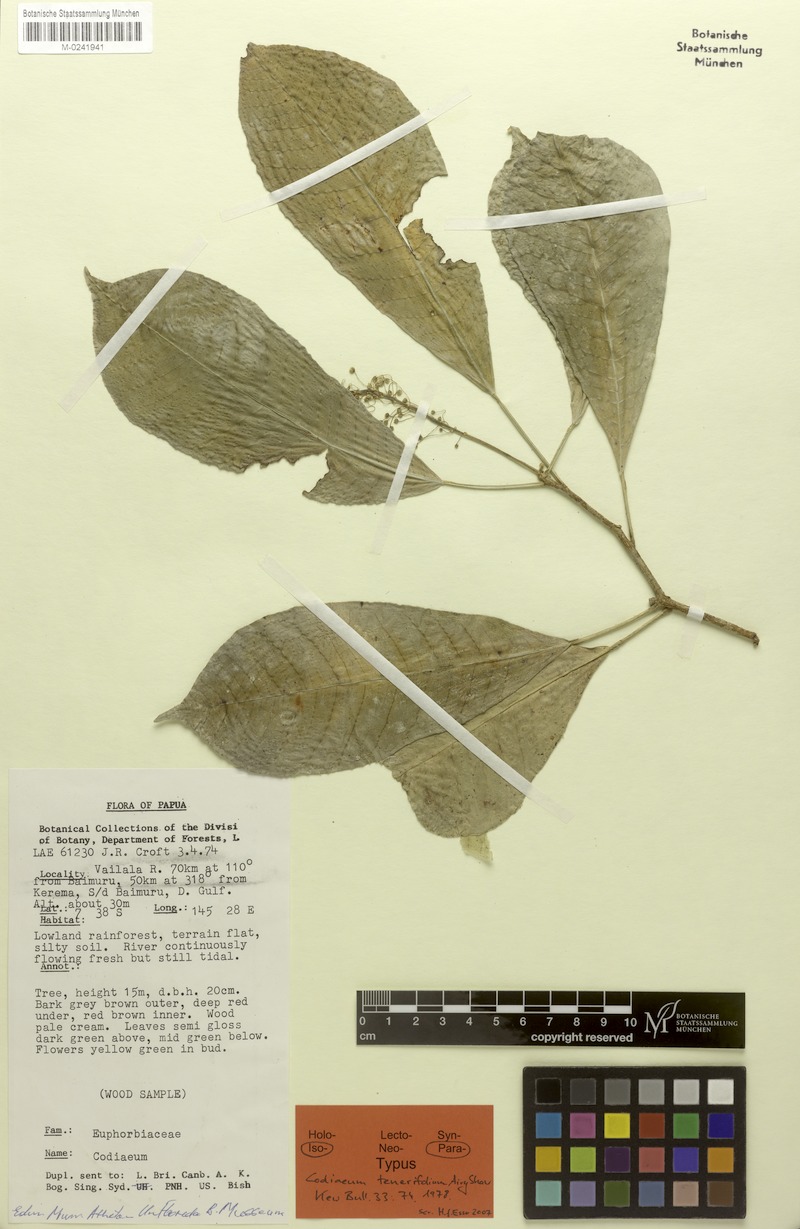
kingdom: Plantae
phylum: Tracheophyta
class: Magnoliopsida
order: Malpighiales
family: Euphorbiaceae
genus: Codiaeum
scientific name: Codiaeum tenerifolium
